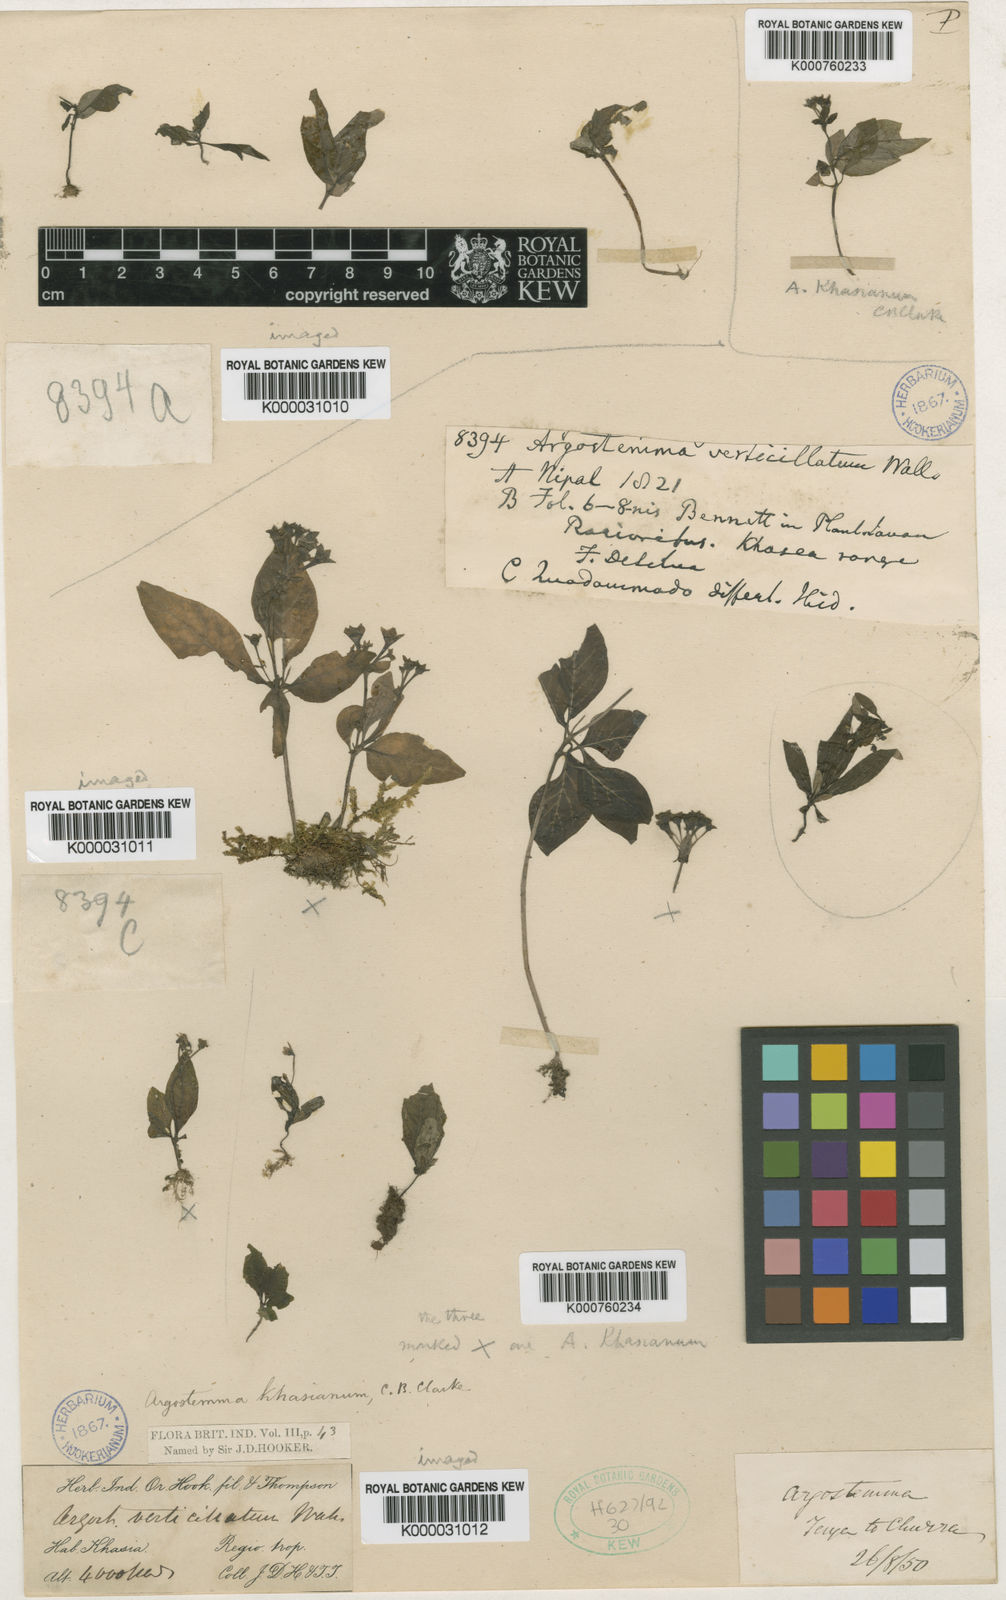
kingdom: Plantae
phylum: Tracheophyta
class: Magnoliopsida
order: Gentianales
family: Rubiaceae
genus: Argostemma
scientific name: Argostemma khasianum
